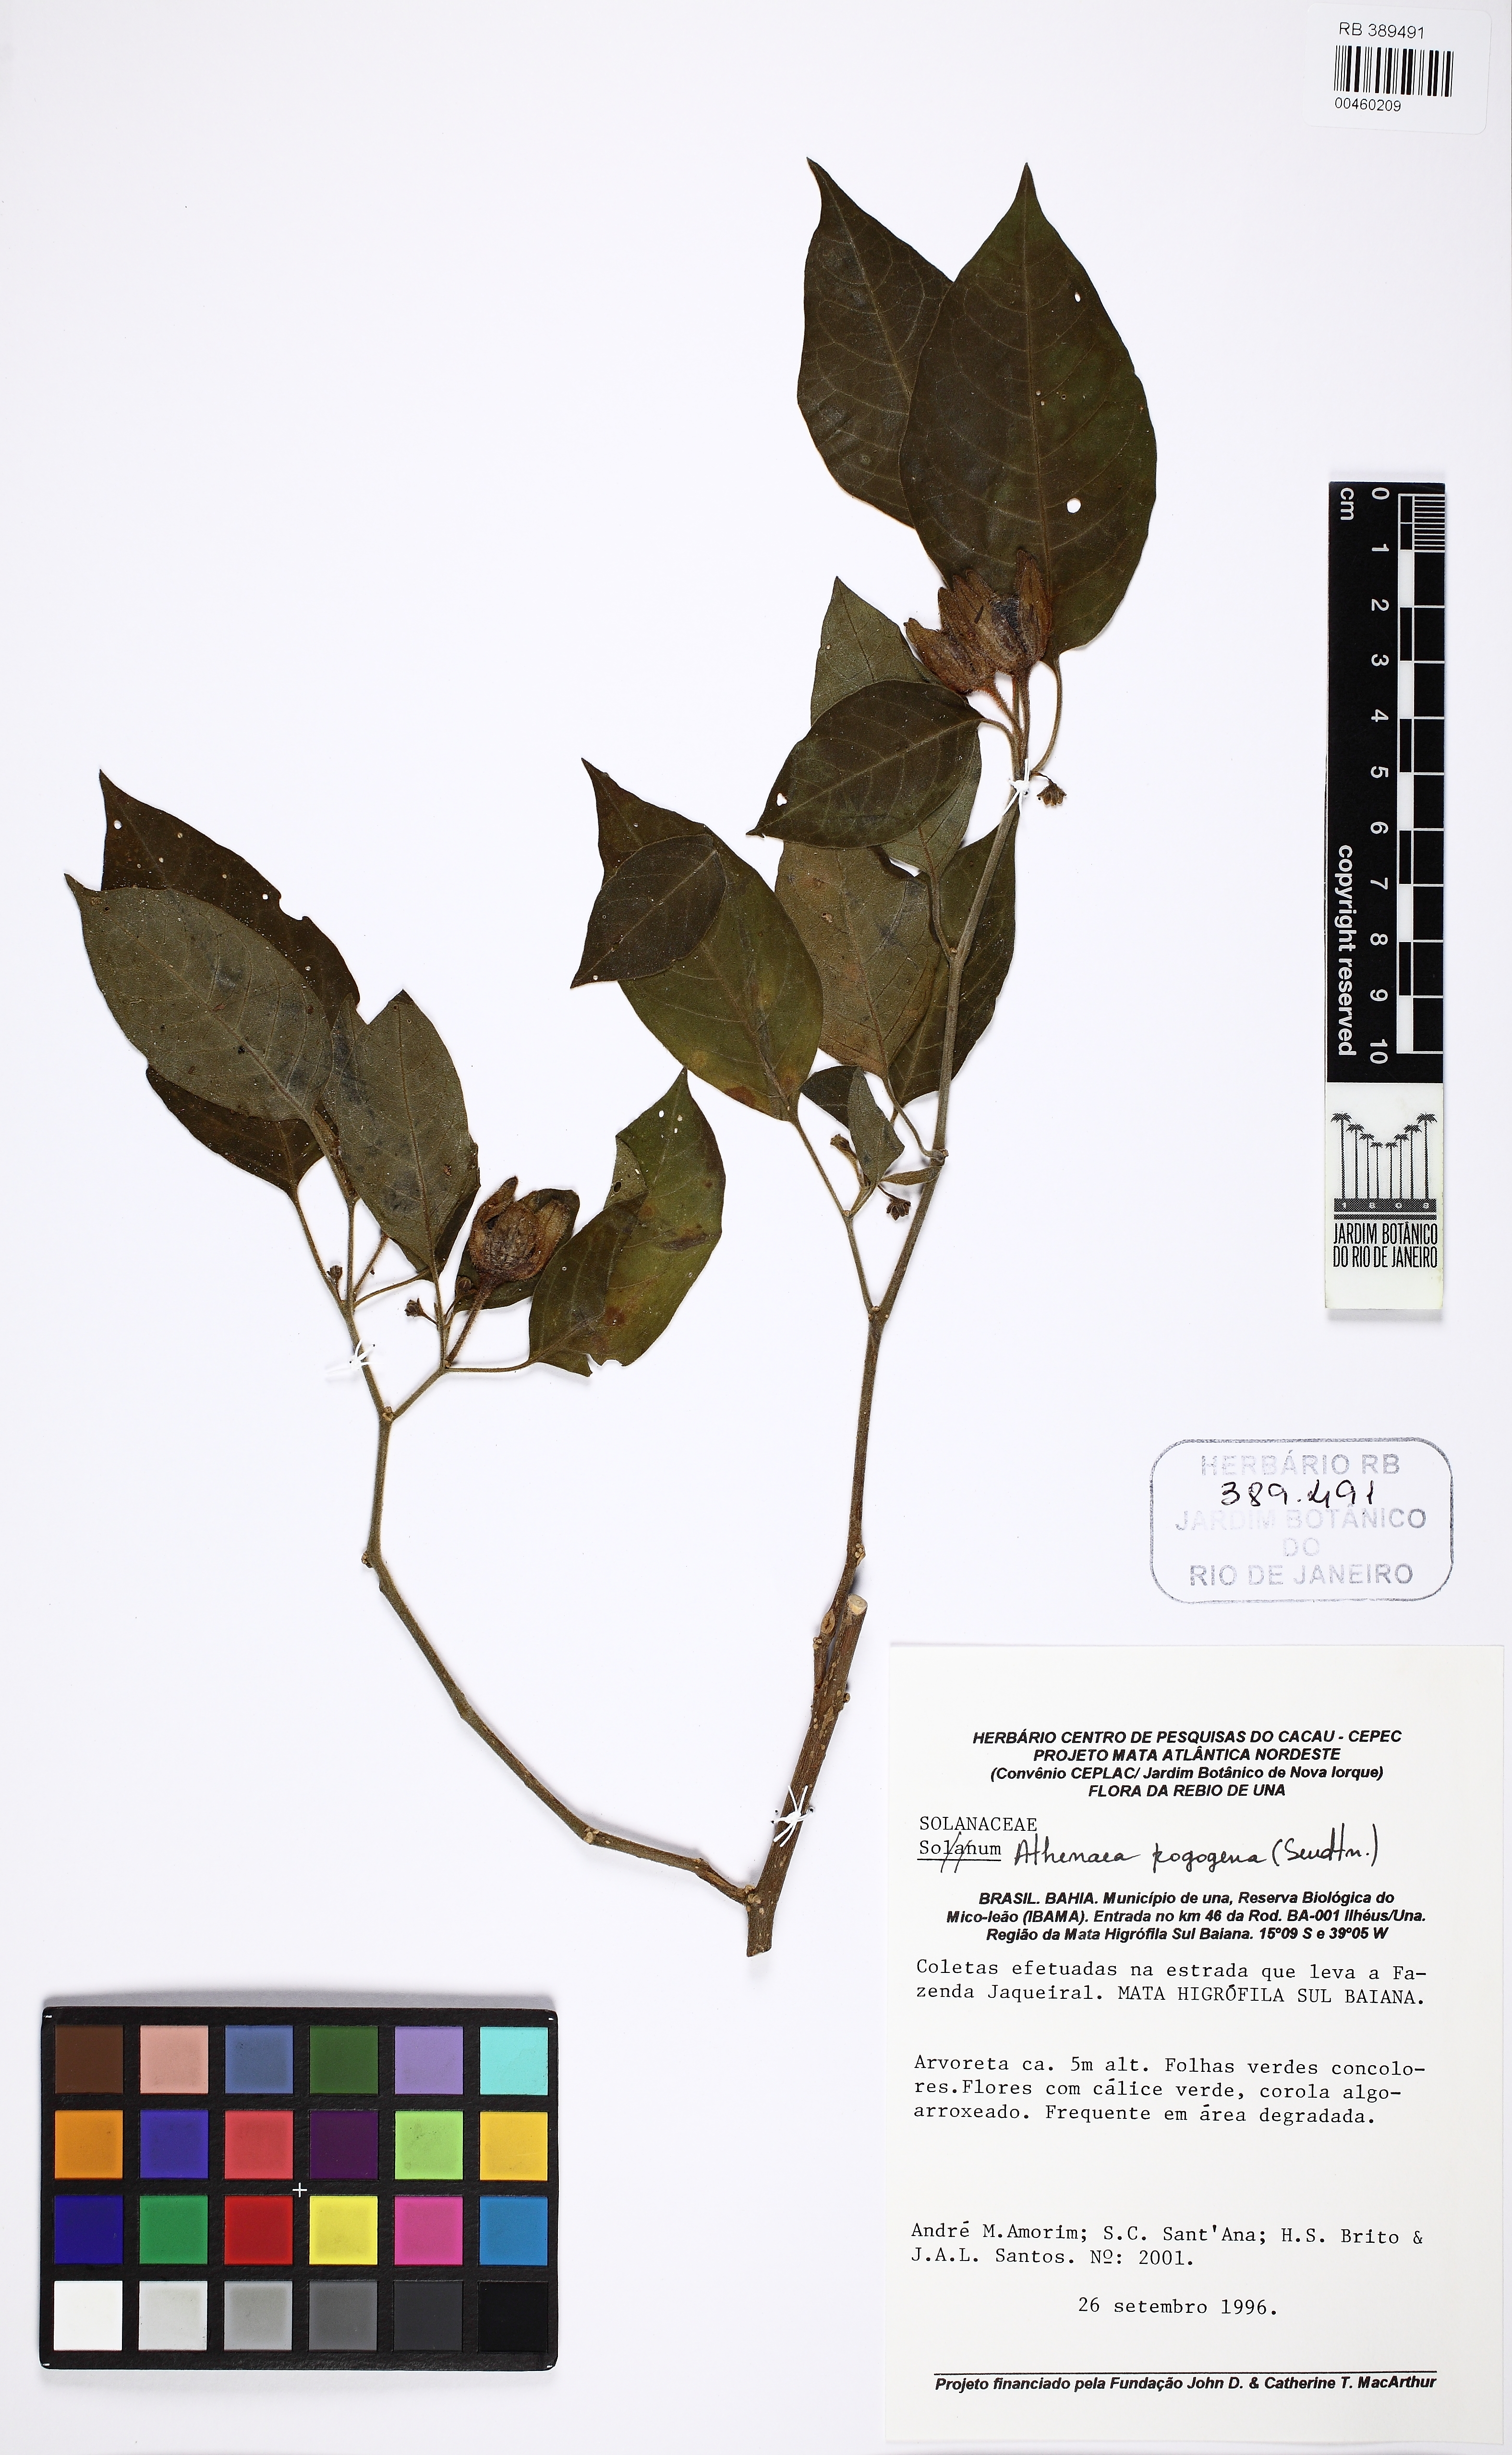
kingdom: Plantae
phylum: Tracheophyta
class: Magnoliopsida
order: Solanales
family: Solanaceae
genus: Athenaea
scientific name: Athenaea pogogena
